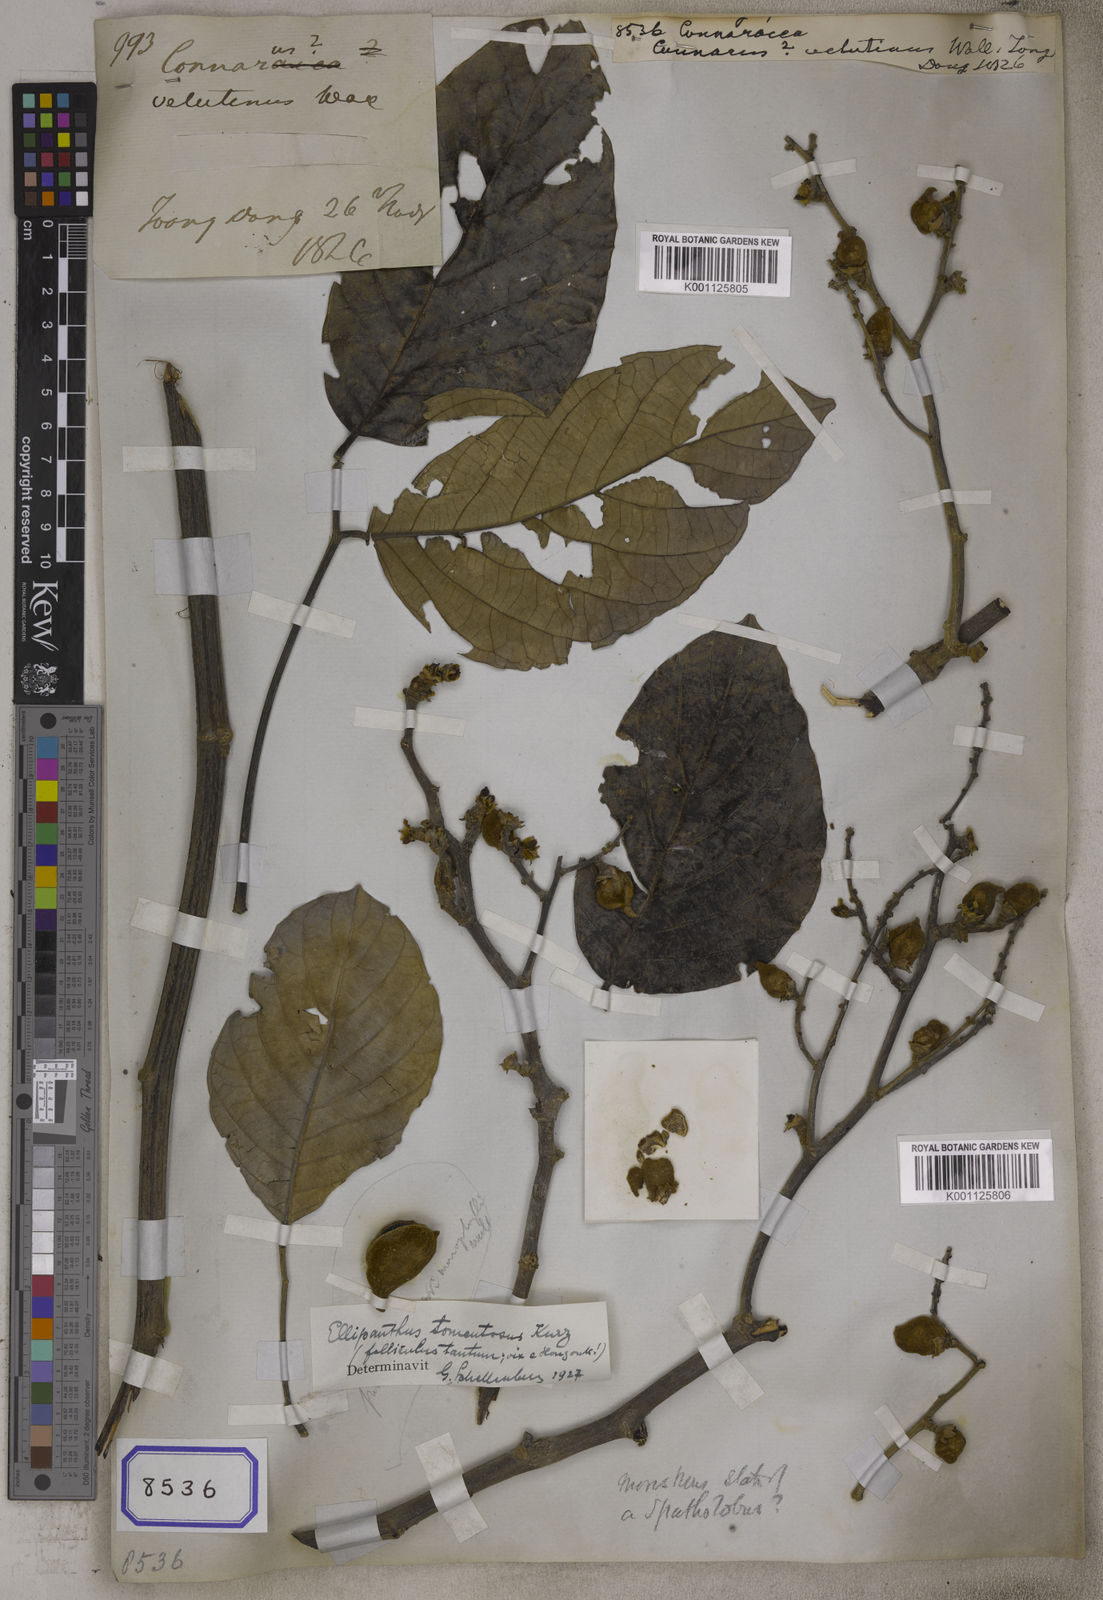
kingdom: Plantae
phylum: Tracheophyta
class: Magnoliopsida
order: Oxalidales
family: Connaraceae
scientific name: Connaraceae
